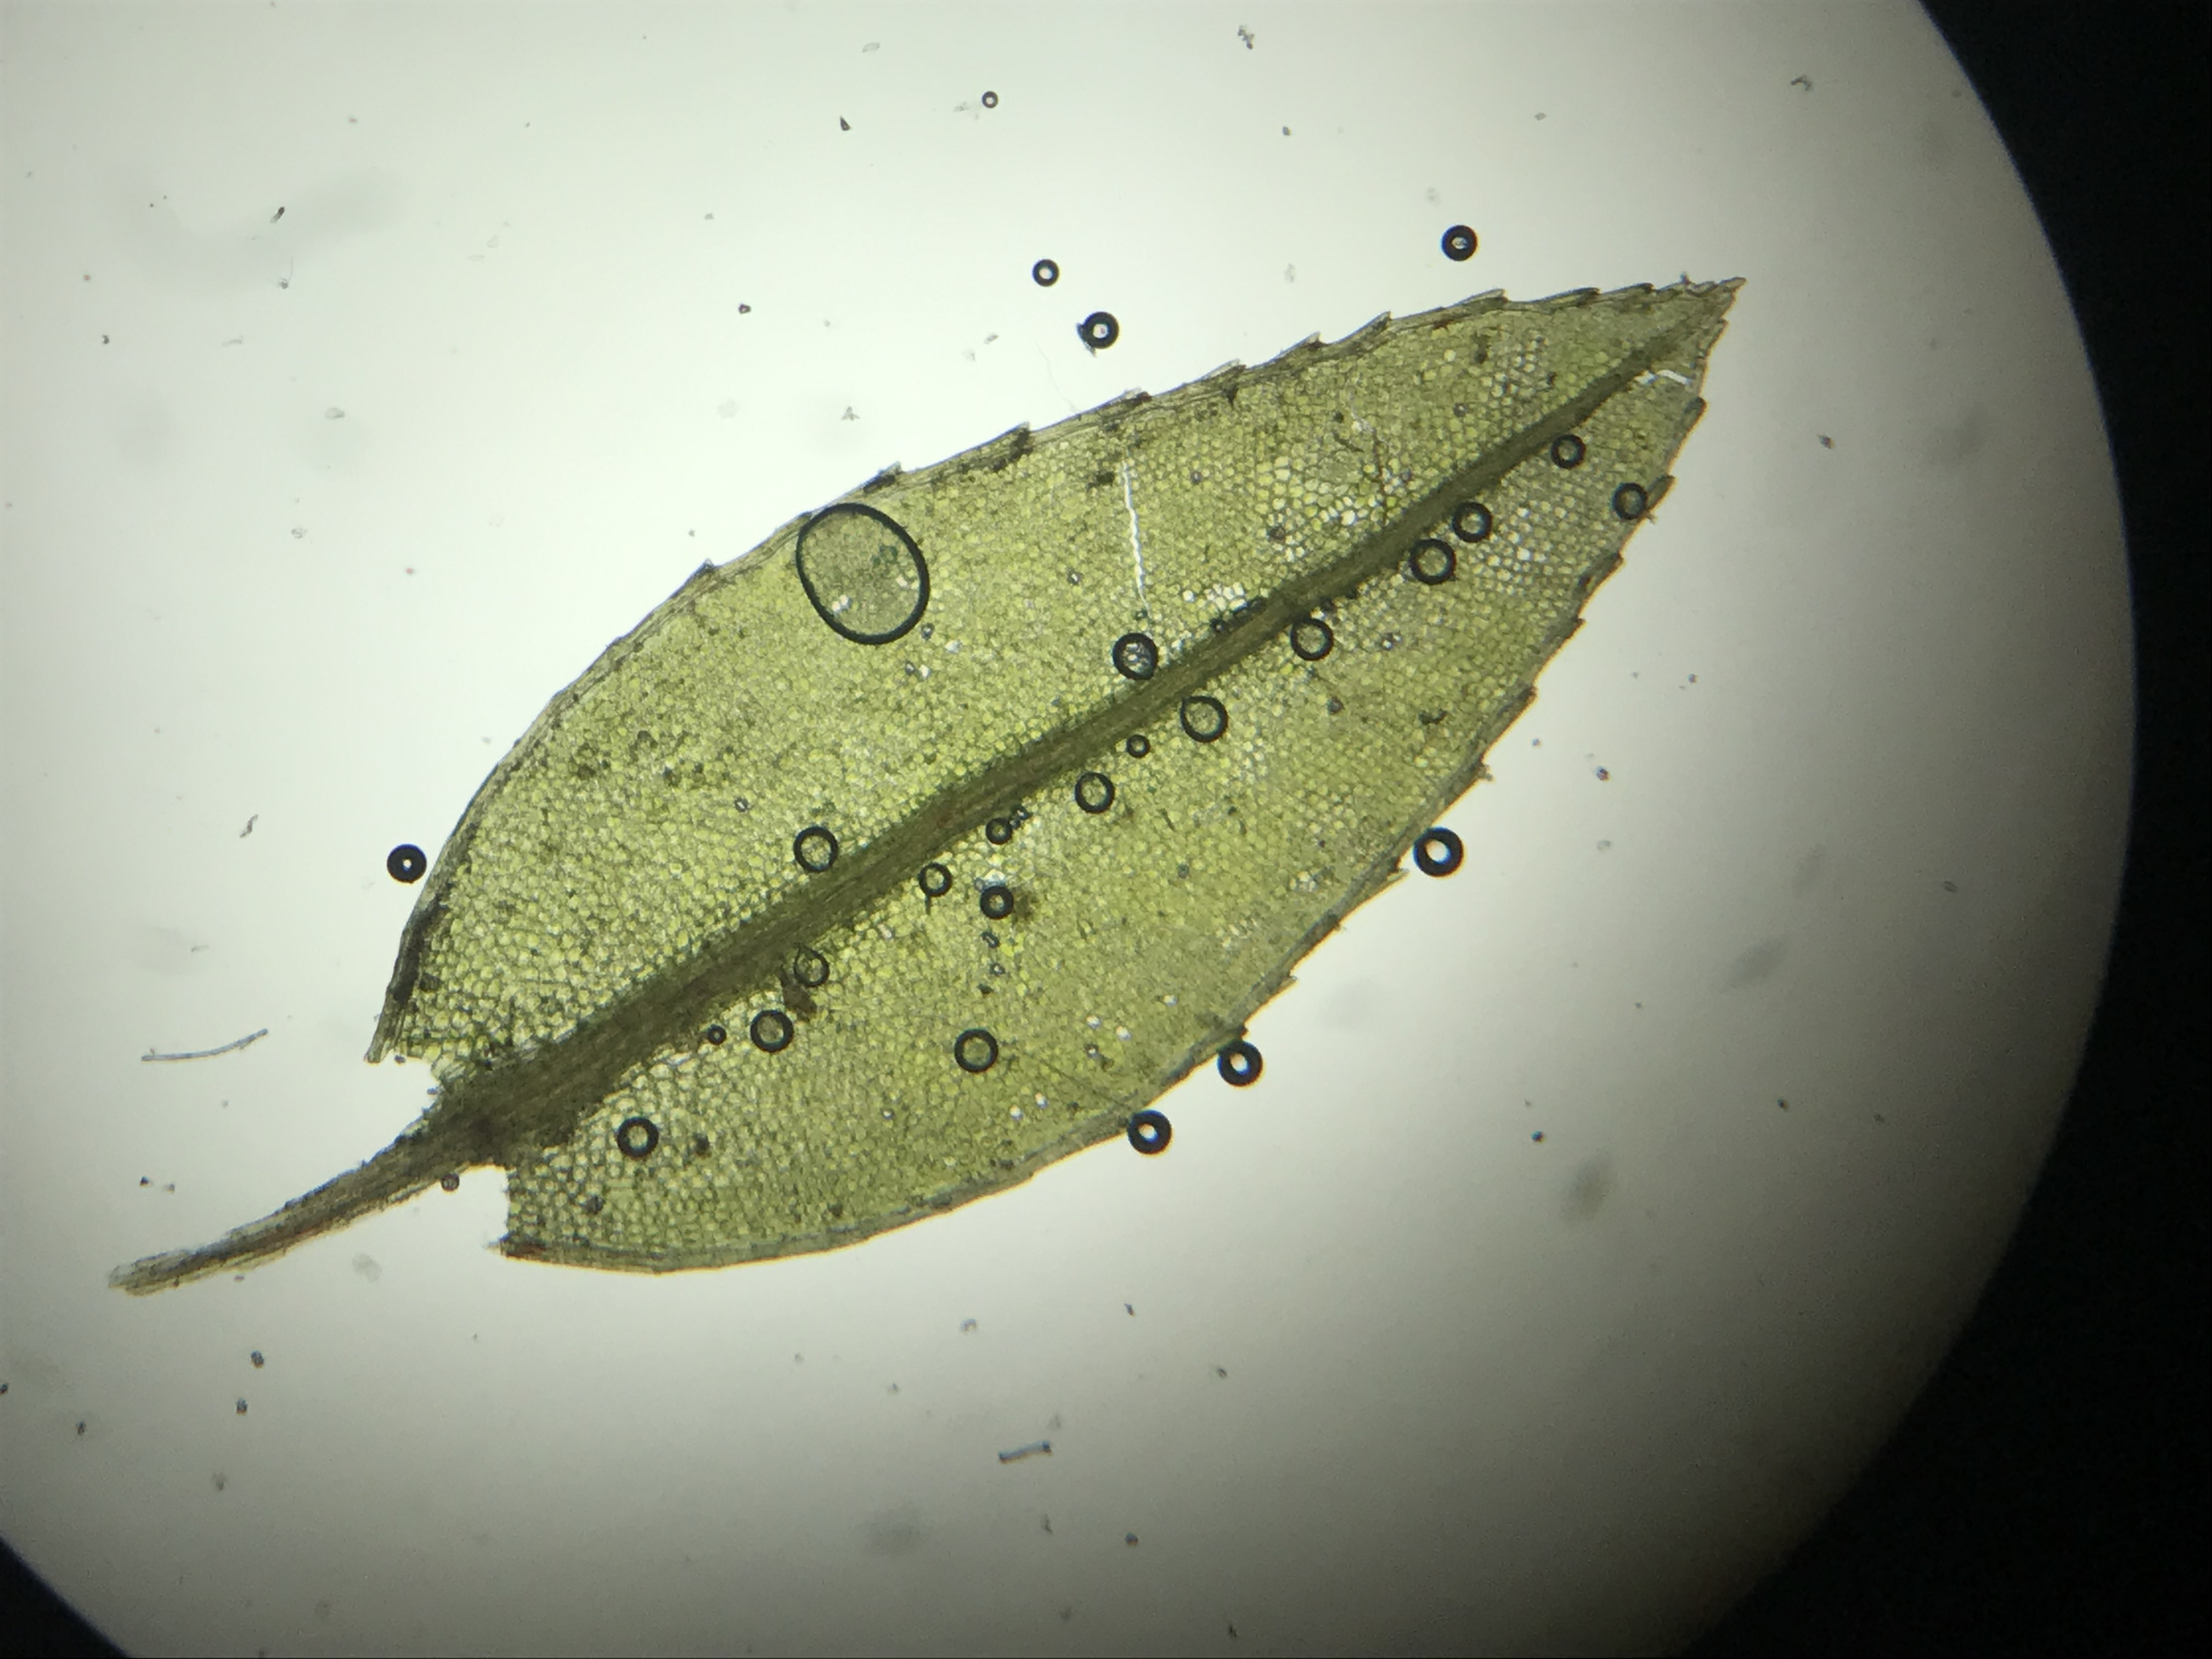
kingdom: Plantae
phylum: Bryophyta
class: Bryopsida
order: Bryales
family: Mniaceae
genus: Mnium
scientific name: Mnium marginatum
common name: Rødlig stjernemos
